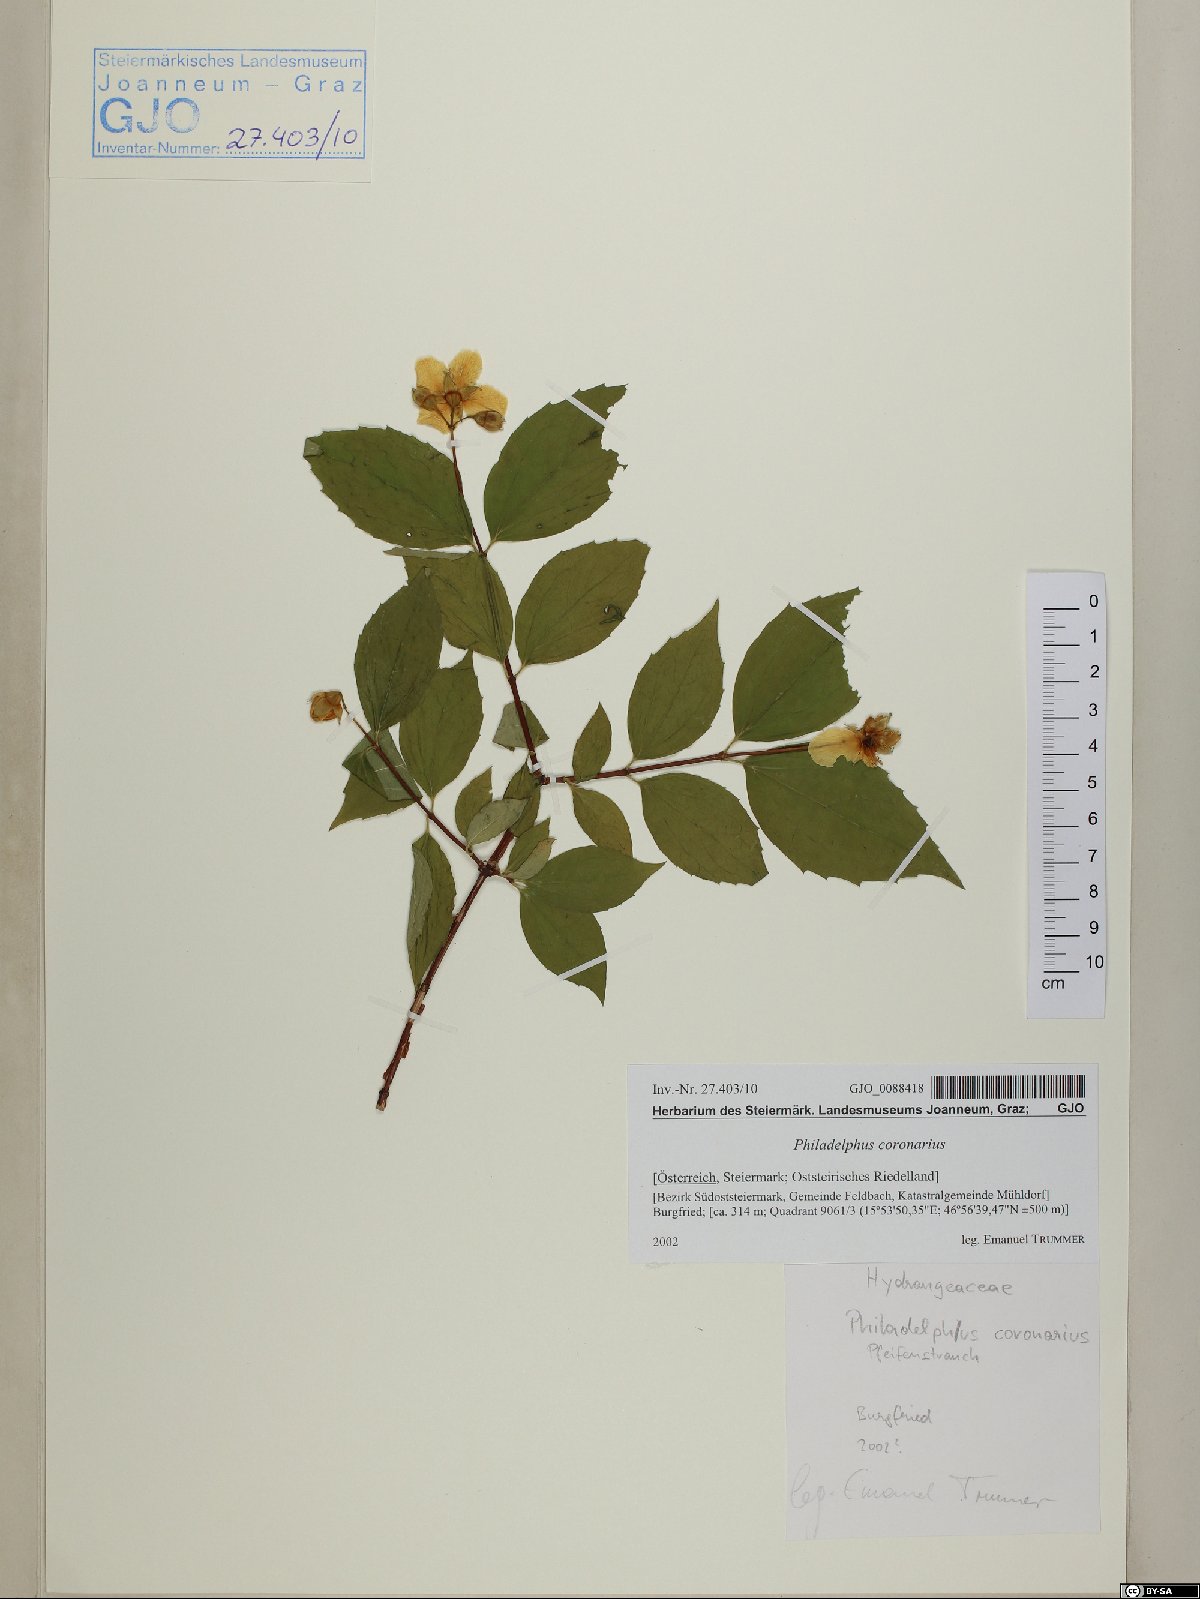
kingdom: Plantae
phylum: Tracheophyta
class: Magnoliopsida
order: Cornales
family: Hydrangeaceae
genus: Philadelphus
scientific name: Philadelphus coronarius
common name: Mock orange
